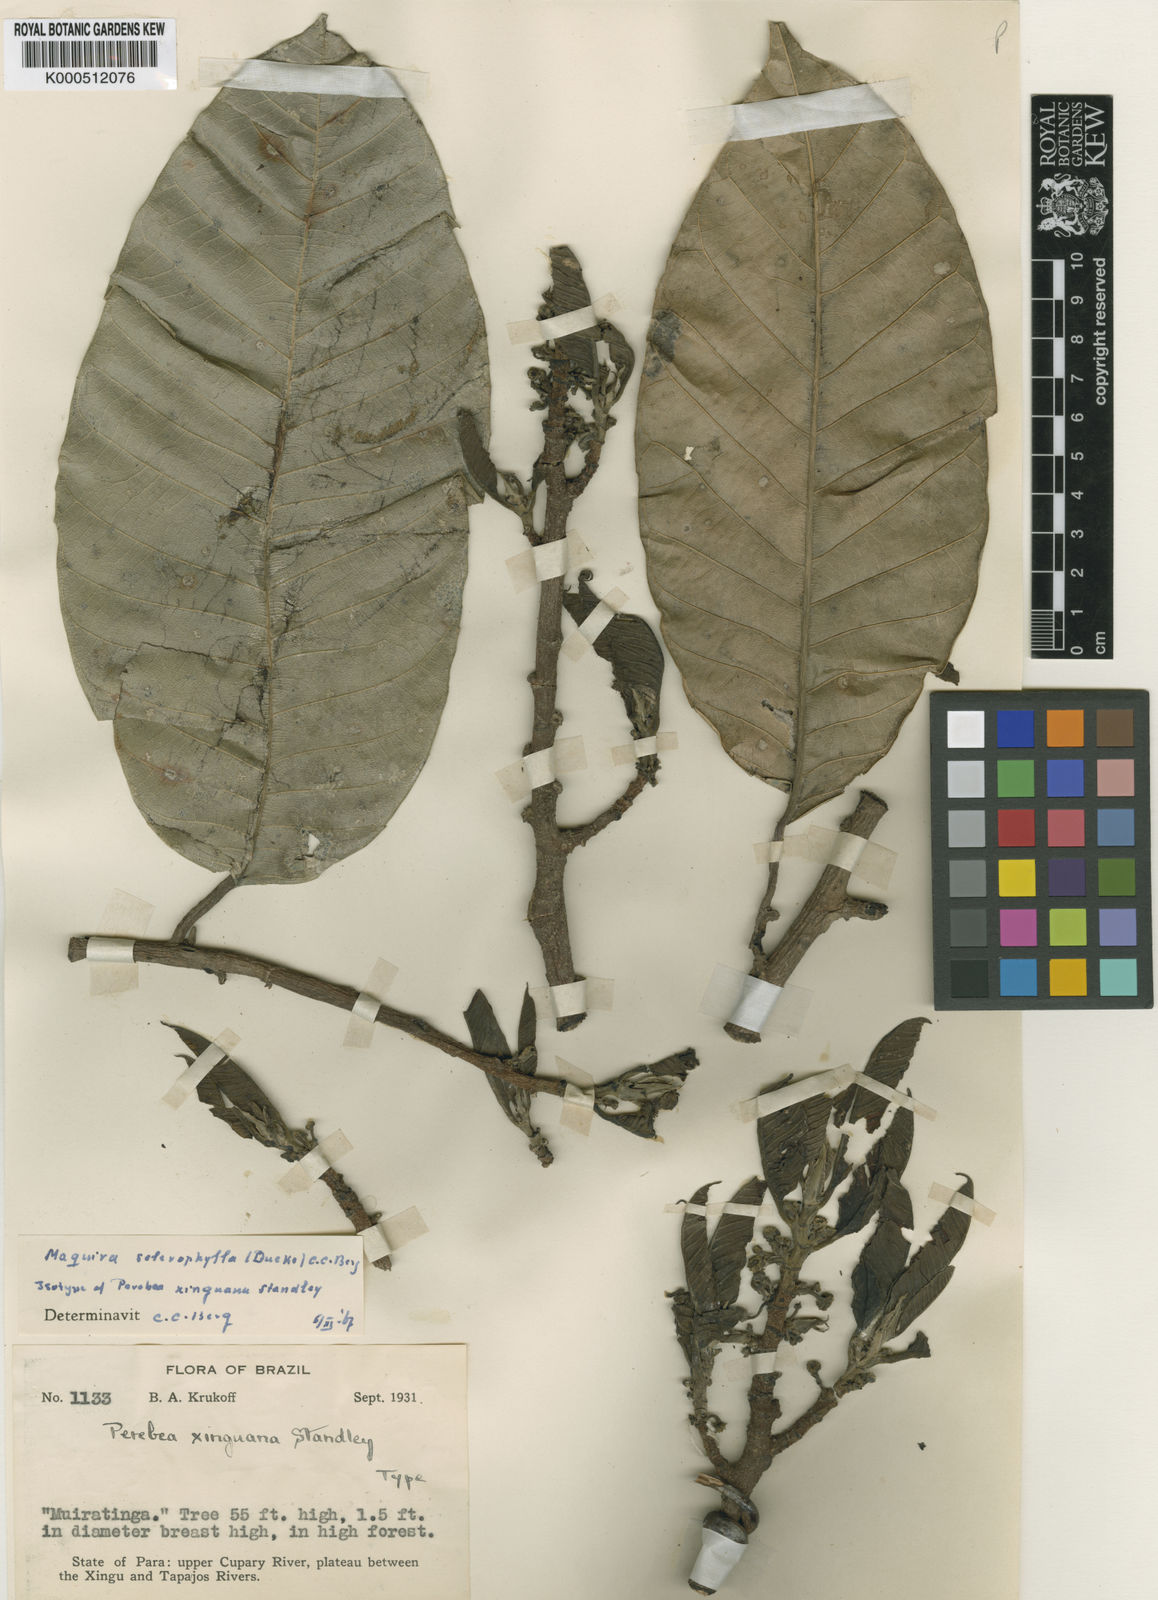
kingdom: Plantae
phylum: Tracheophyta
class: Magnoliopsida
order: Rosales
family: Moraceae
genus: Maquira
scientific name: Maquira sclerophylla
